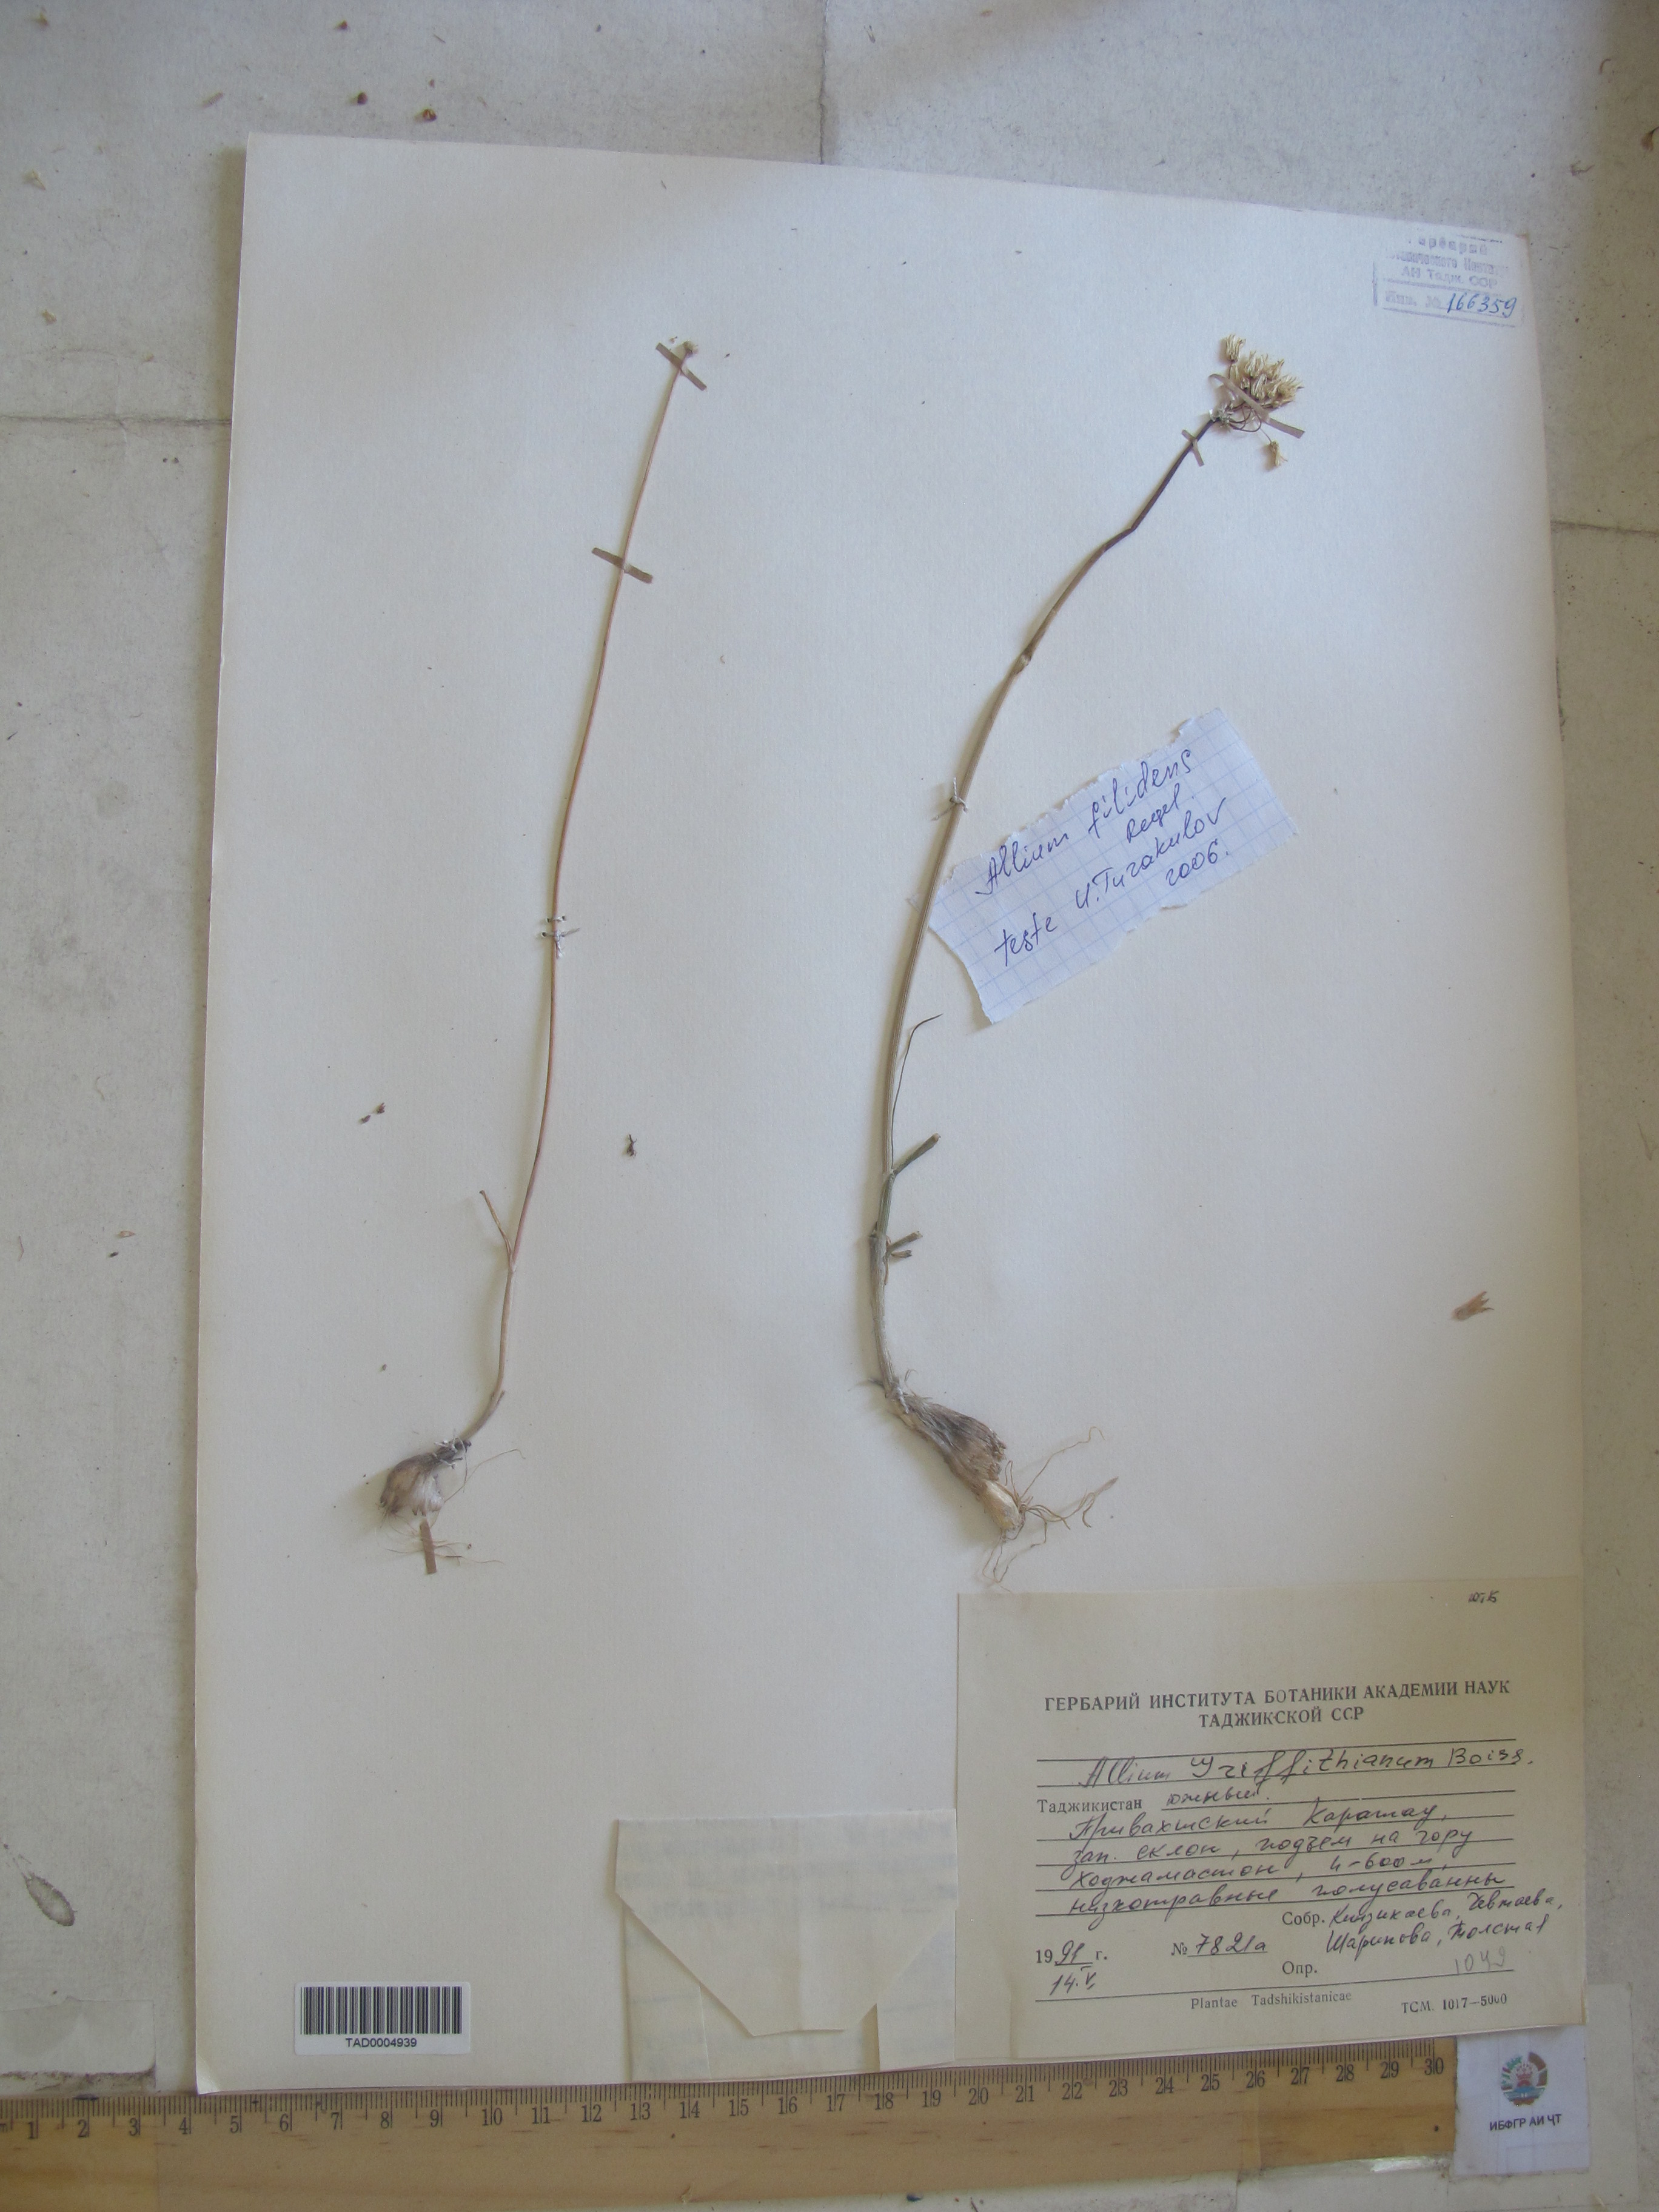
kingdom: Plantae
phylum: Tracheophyta
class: Liliopsida
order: Asparagales
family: Amaryllidaceae
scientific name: Amaryllidaceae
